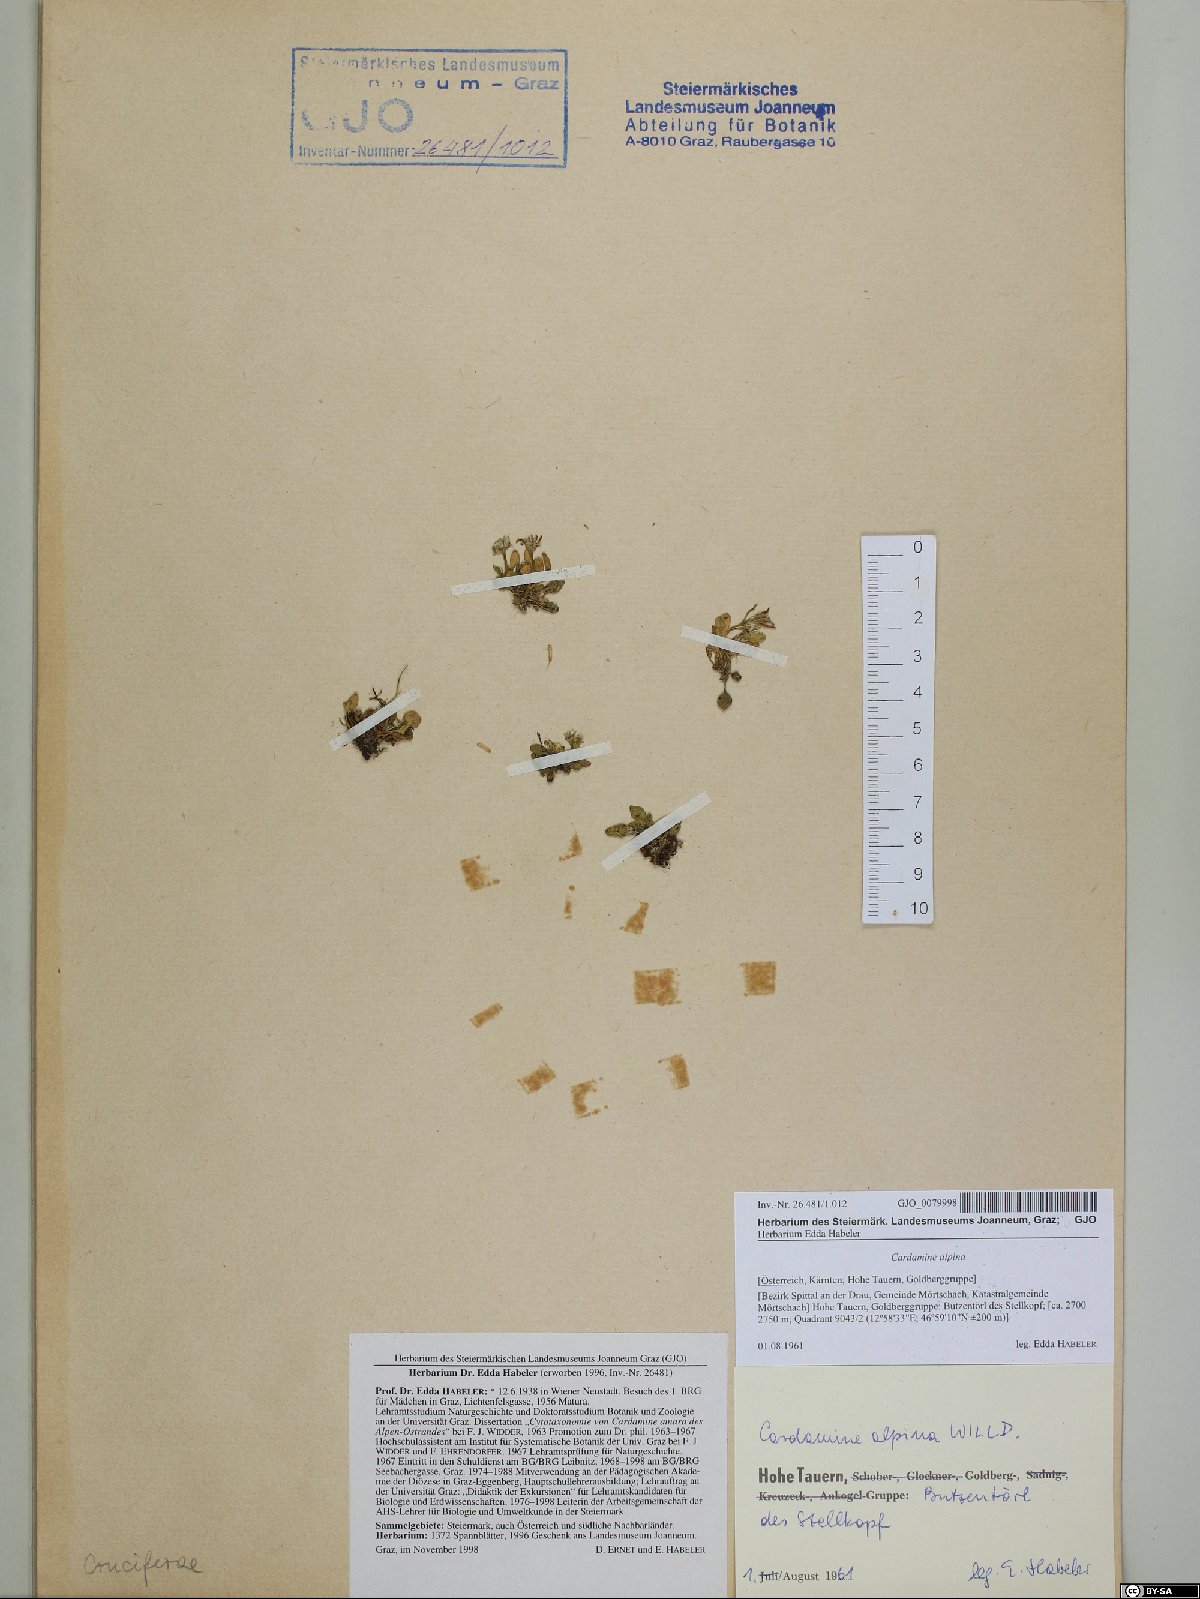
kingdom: Plantae
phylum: Tracheophyta
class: Magnoliopsida
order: Brassicales
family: Brassicaceae
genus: Cardamine
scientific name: Cardamine bellidifolia
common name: Alpine bittercress
